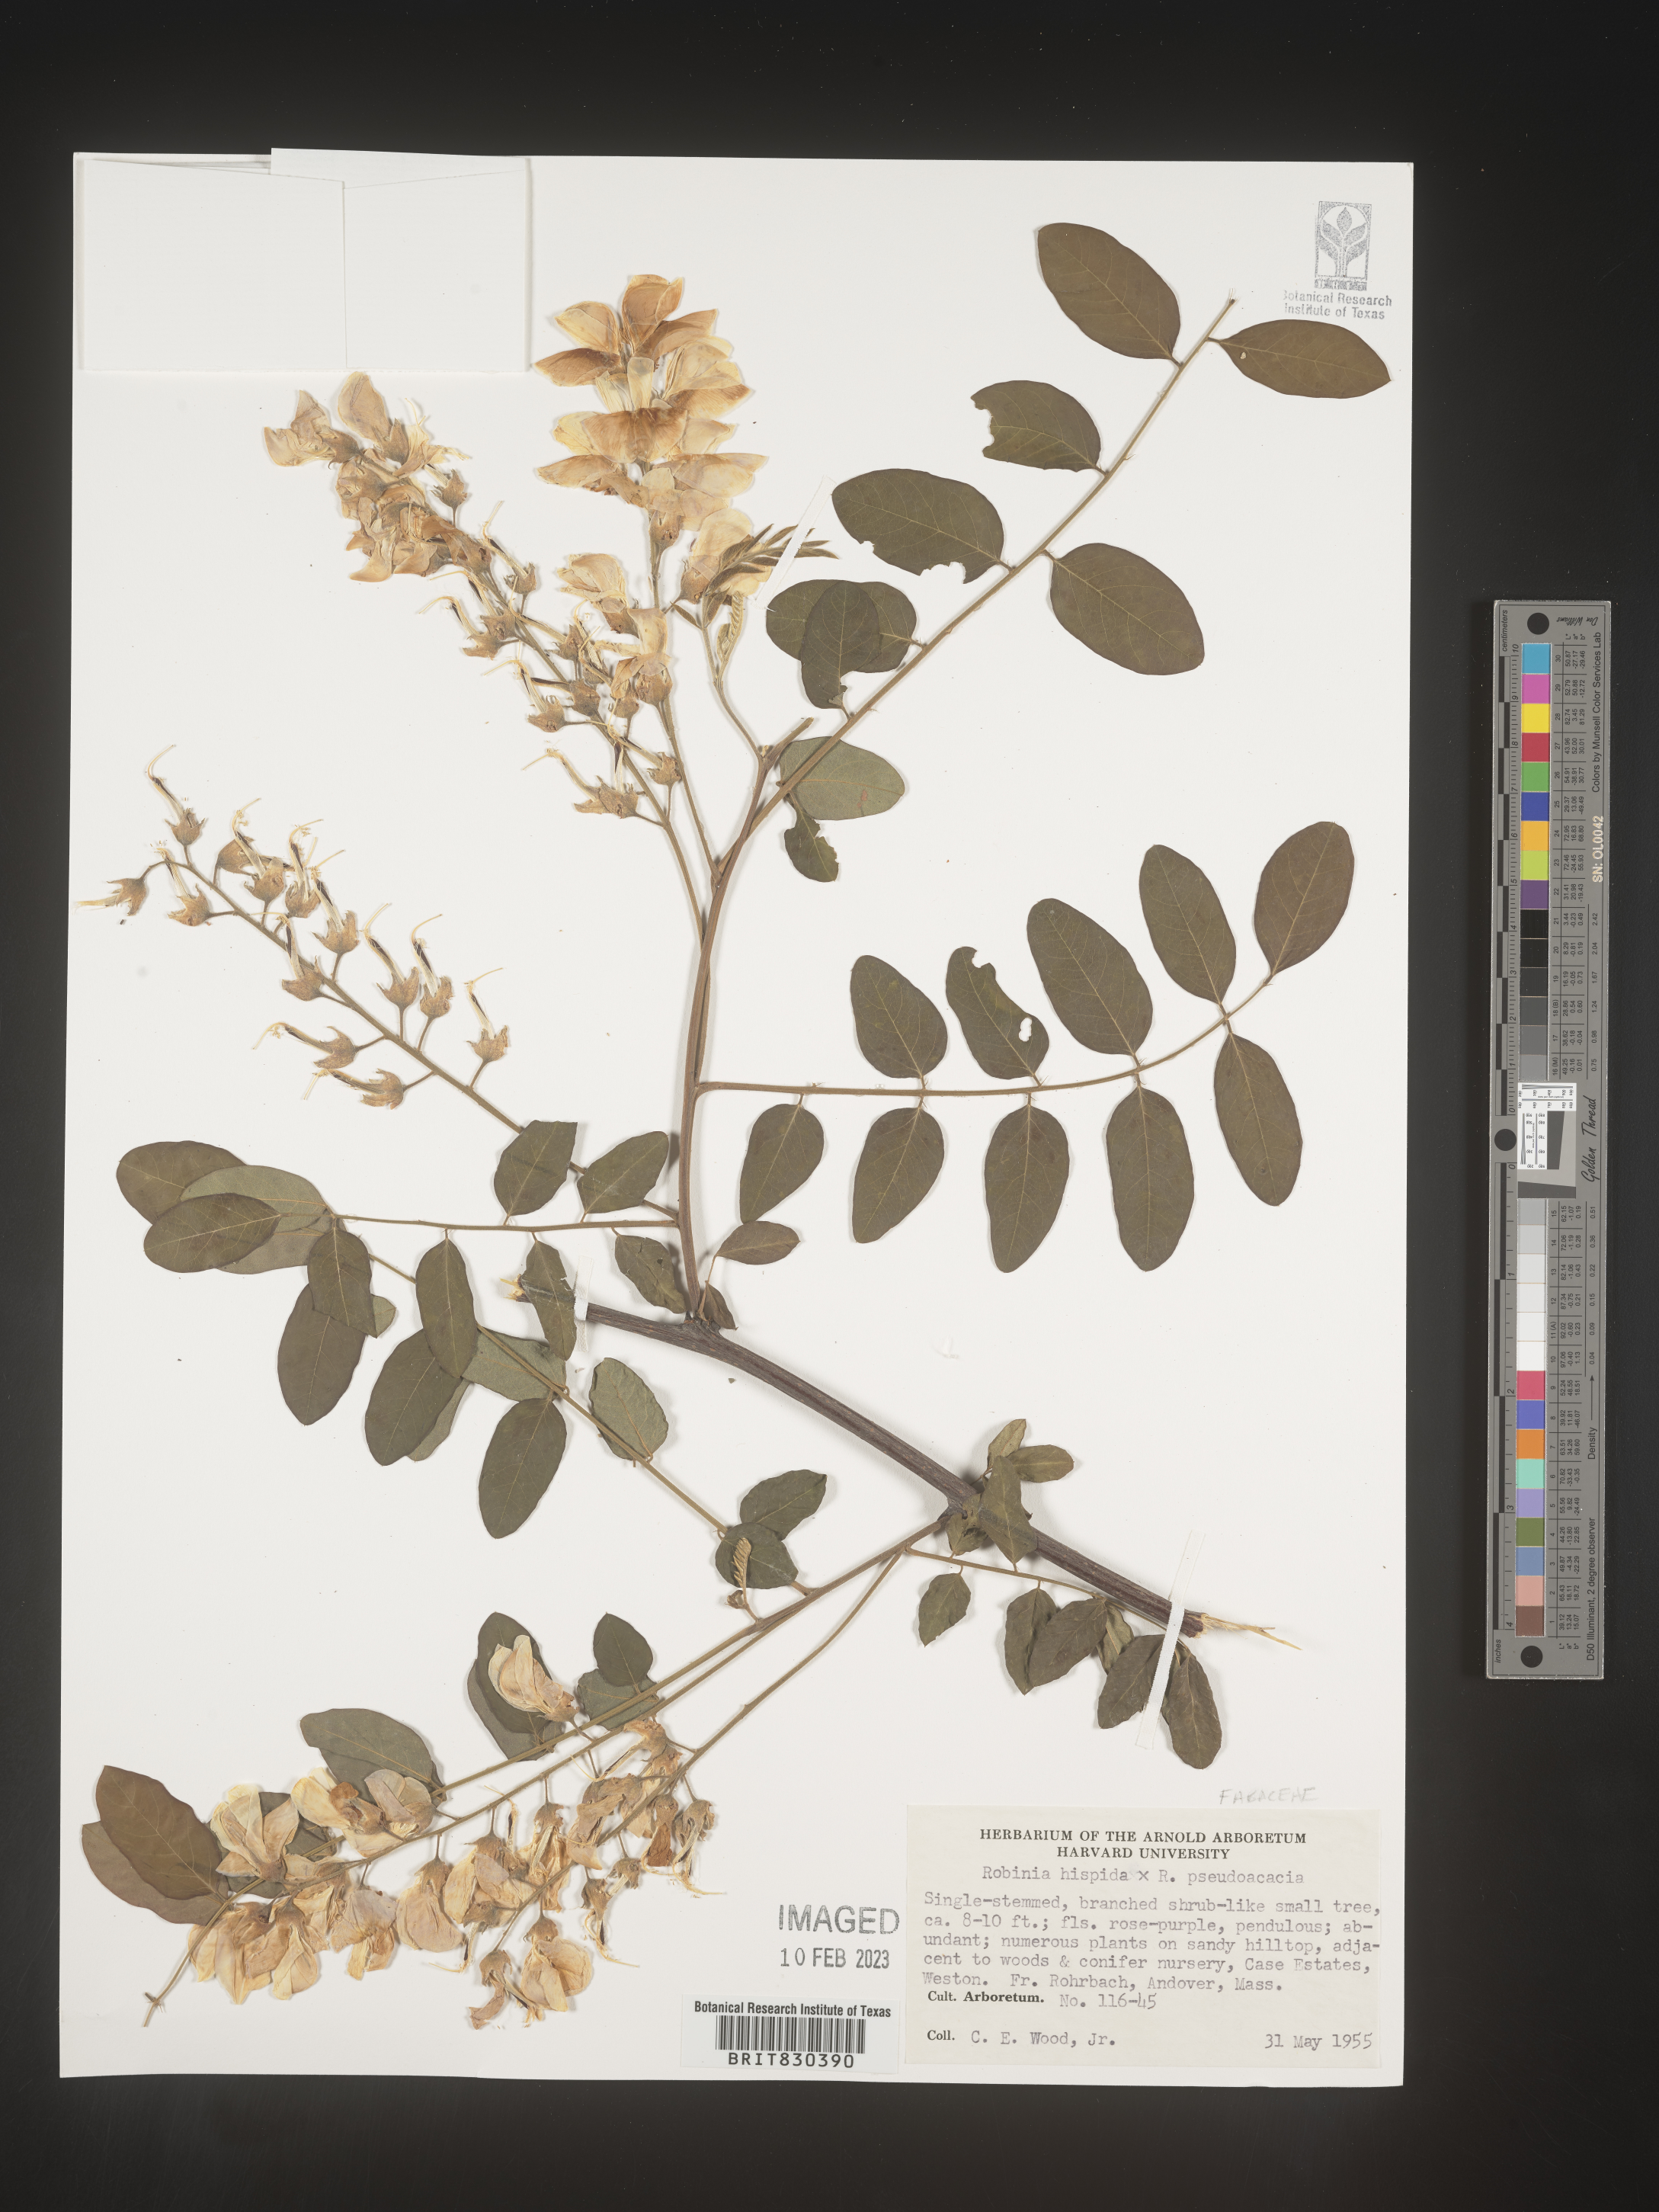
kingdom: Plantae
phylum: Tracheophyta
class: Magnoliopsida
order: Fabales
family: Fabaceae
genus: Robinia
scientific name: Robinia hispida
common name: Bristly locust
